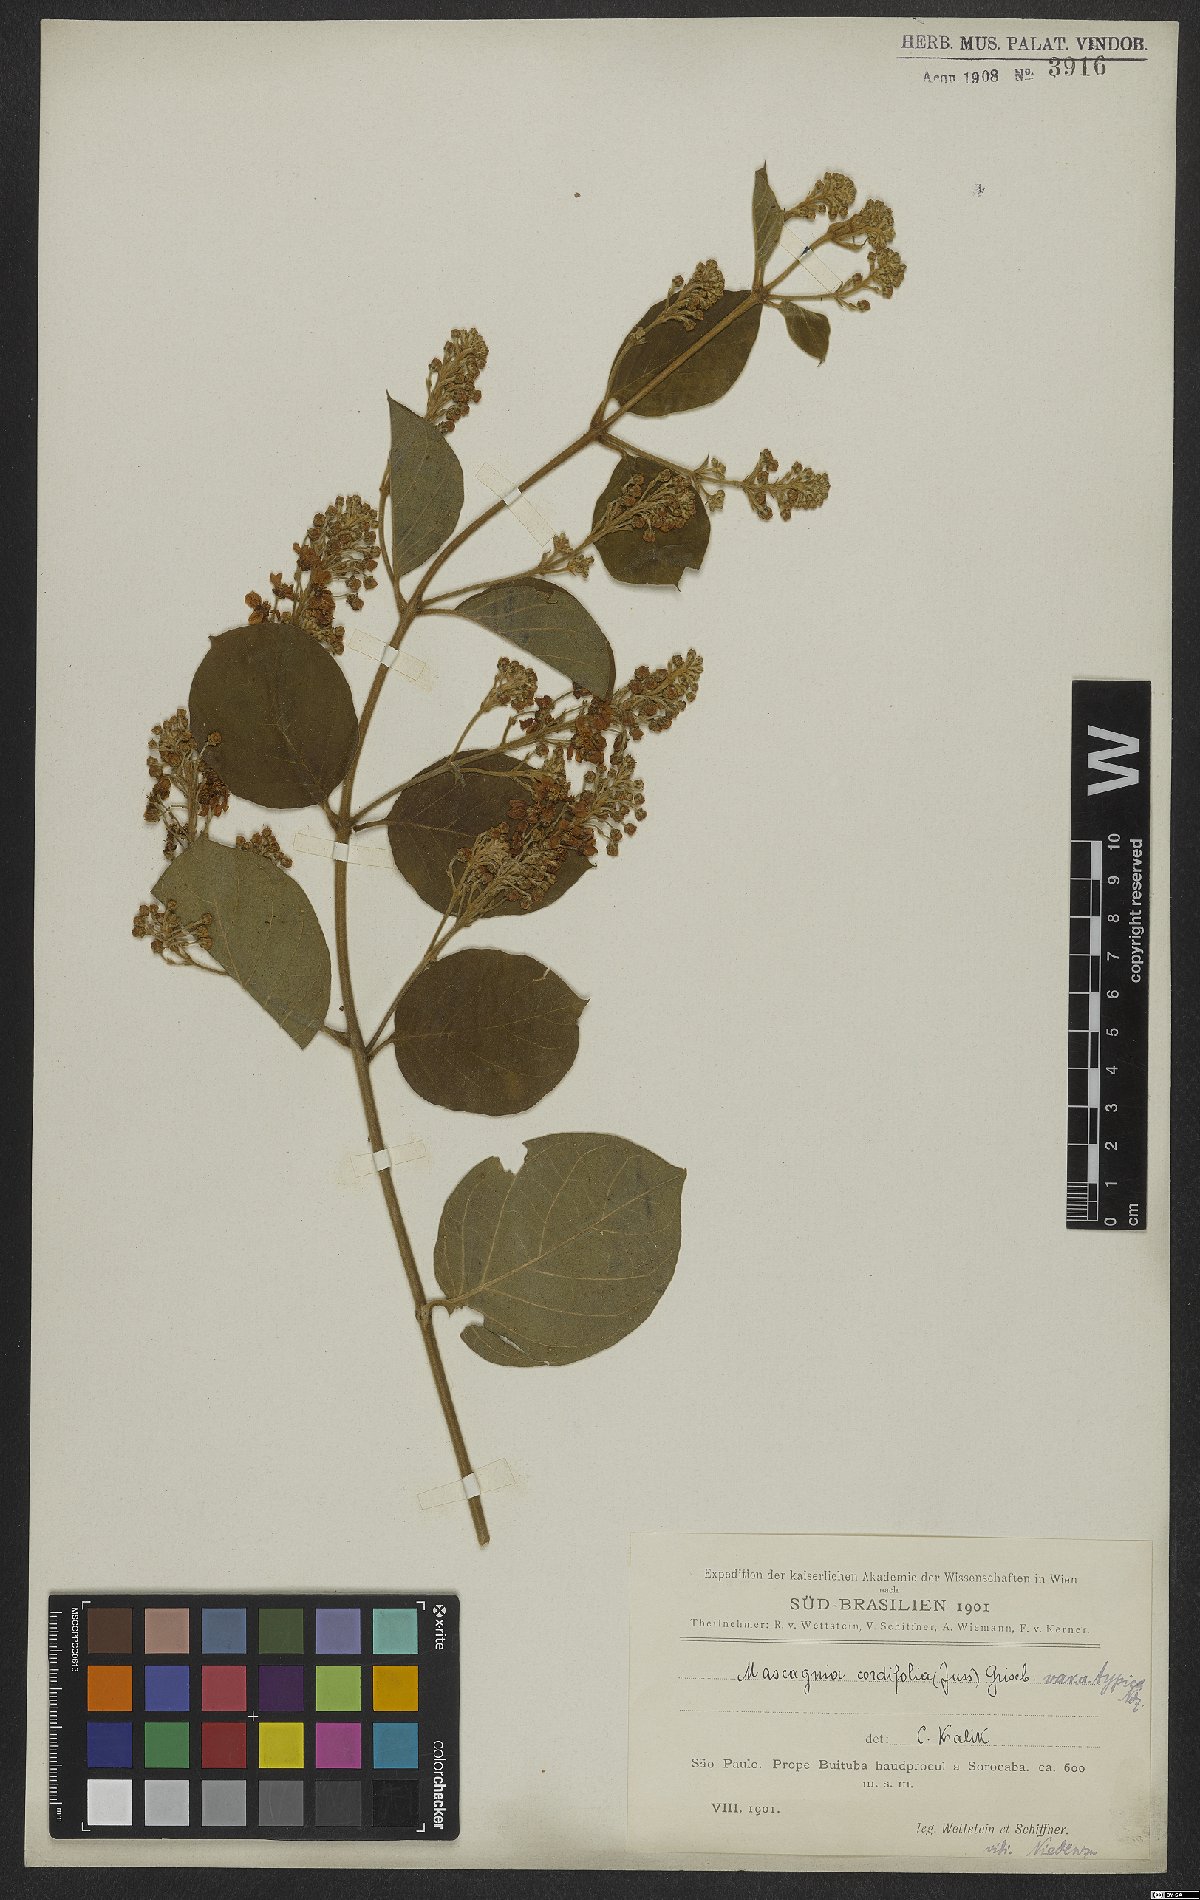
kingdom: Plantae
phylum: Tracheophyta
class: Magnoliopsida
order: Malpighiales
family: Malpighiaceae
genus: Mascagnia
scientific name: Mascagnia cordifolia
